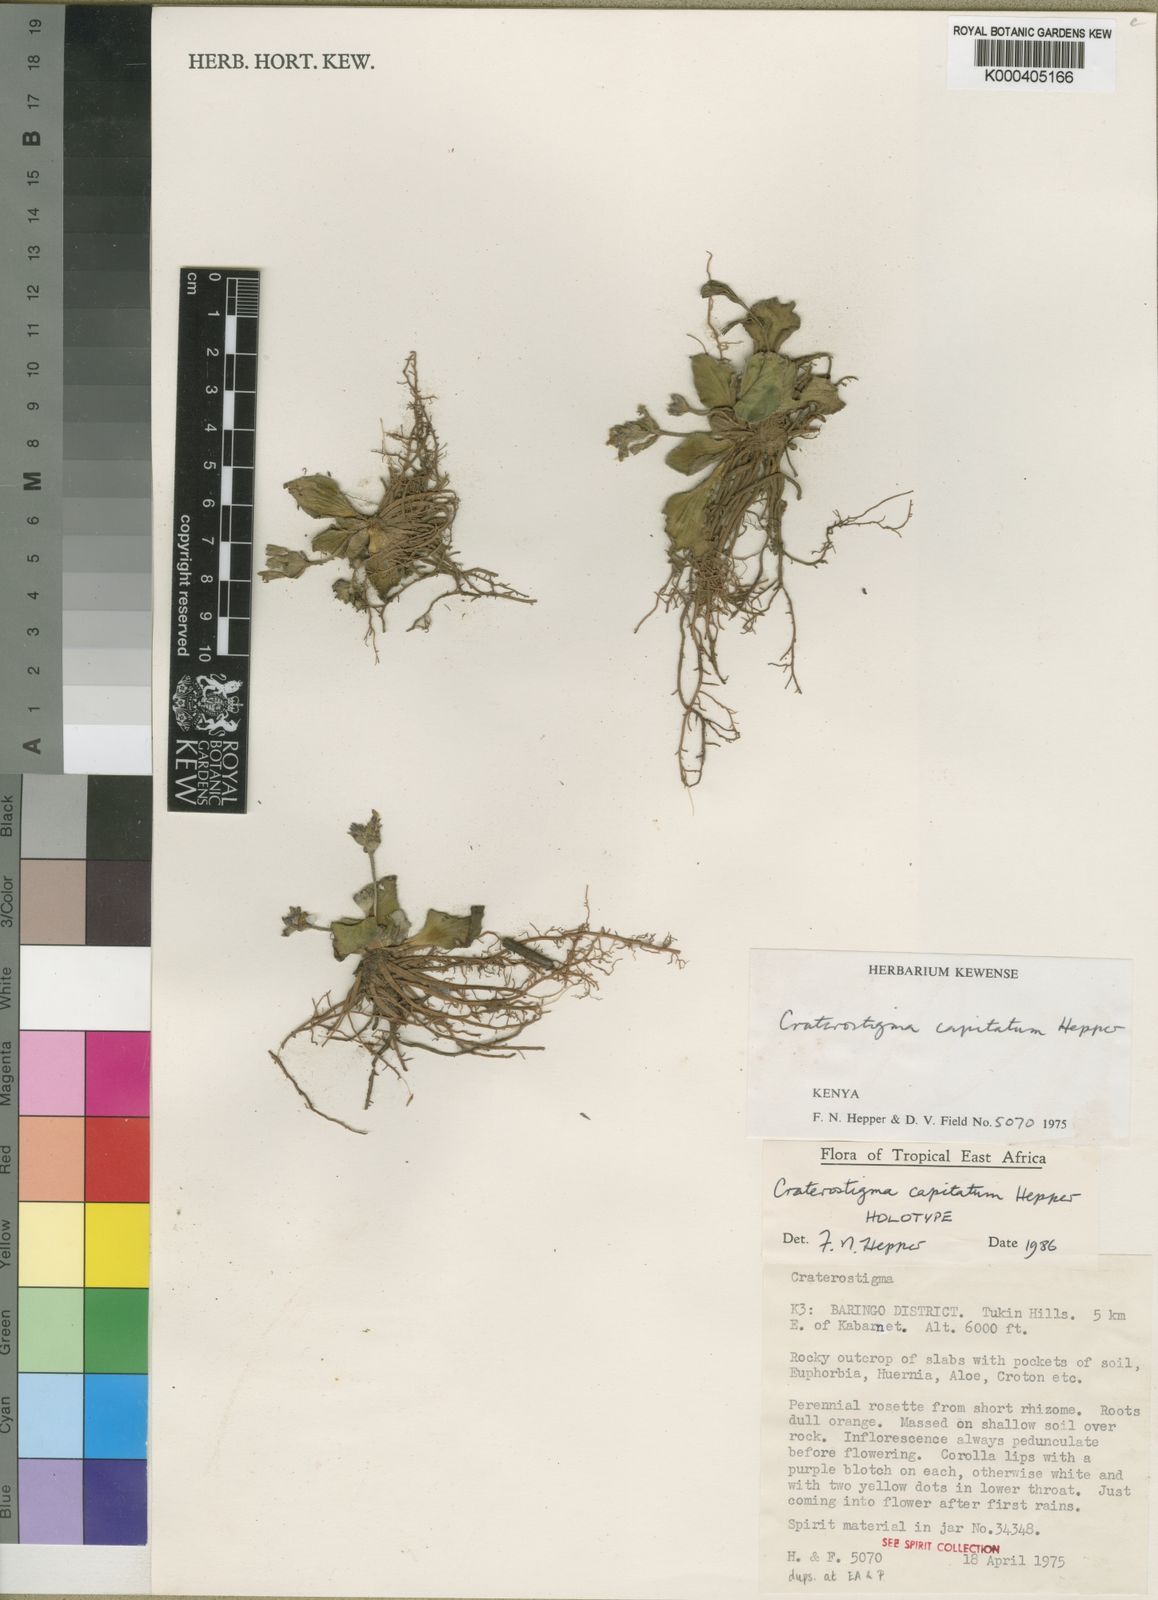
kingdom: Plantae
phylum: Tracheophyta
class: Magnoliopsida
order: Lamiales
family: Linderniaceae
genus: Craterostigma
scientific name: Craterostigma
